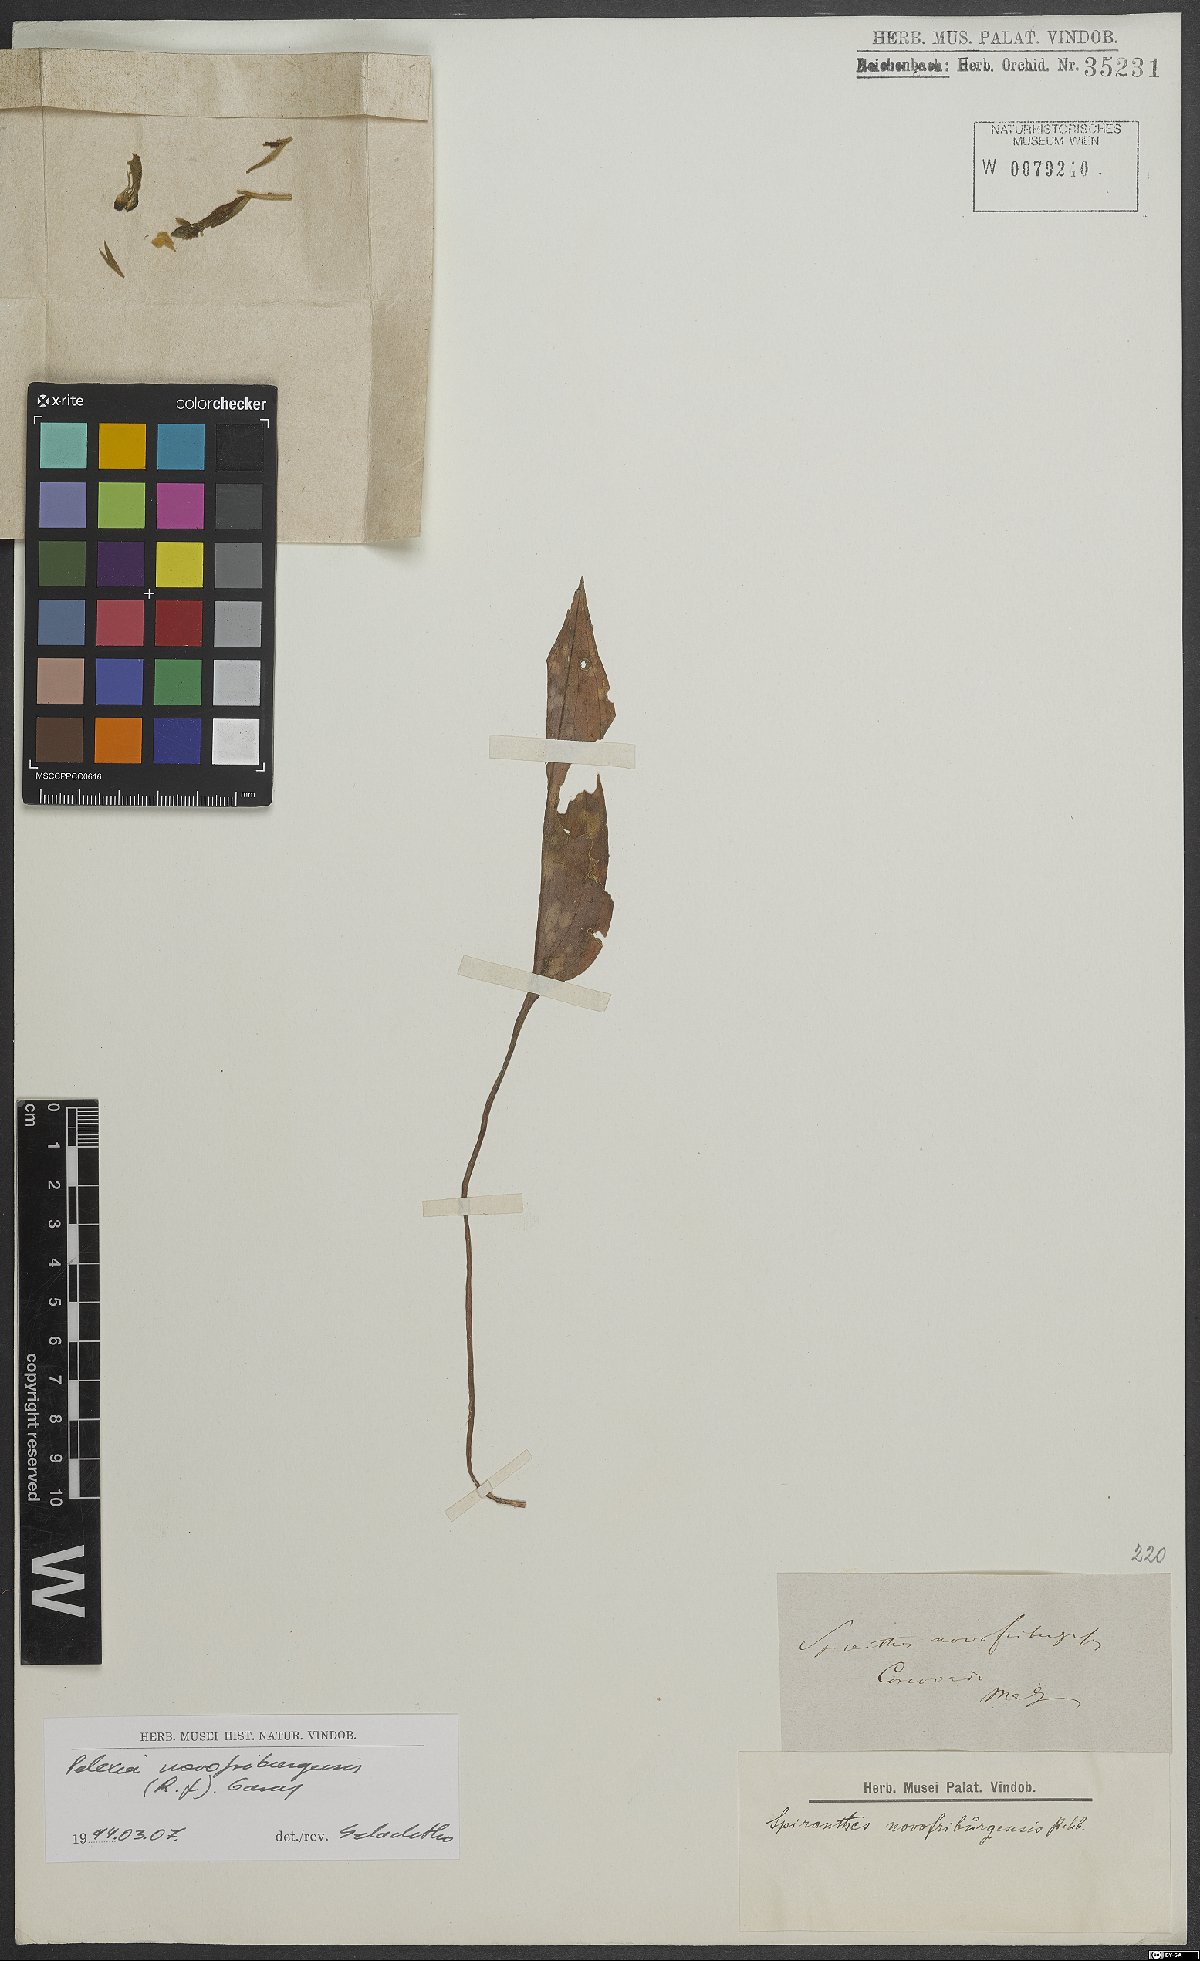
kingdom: Plantae
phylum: Tracheophyta
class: Liliopsida
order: Asparagales
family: Orchidaceae
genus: Pelexia
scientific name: Pelexia novofriburgensis
